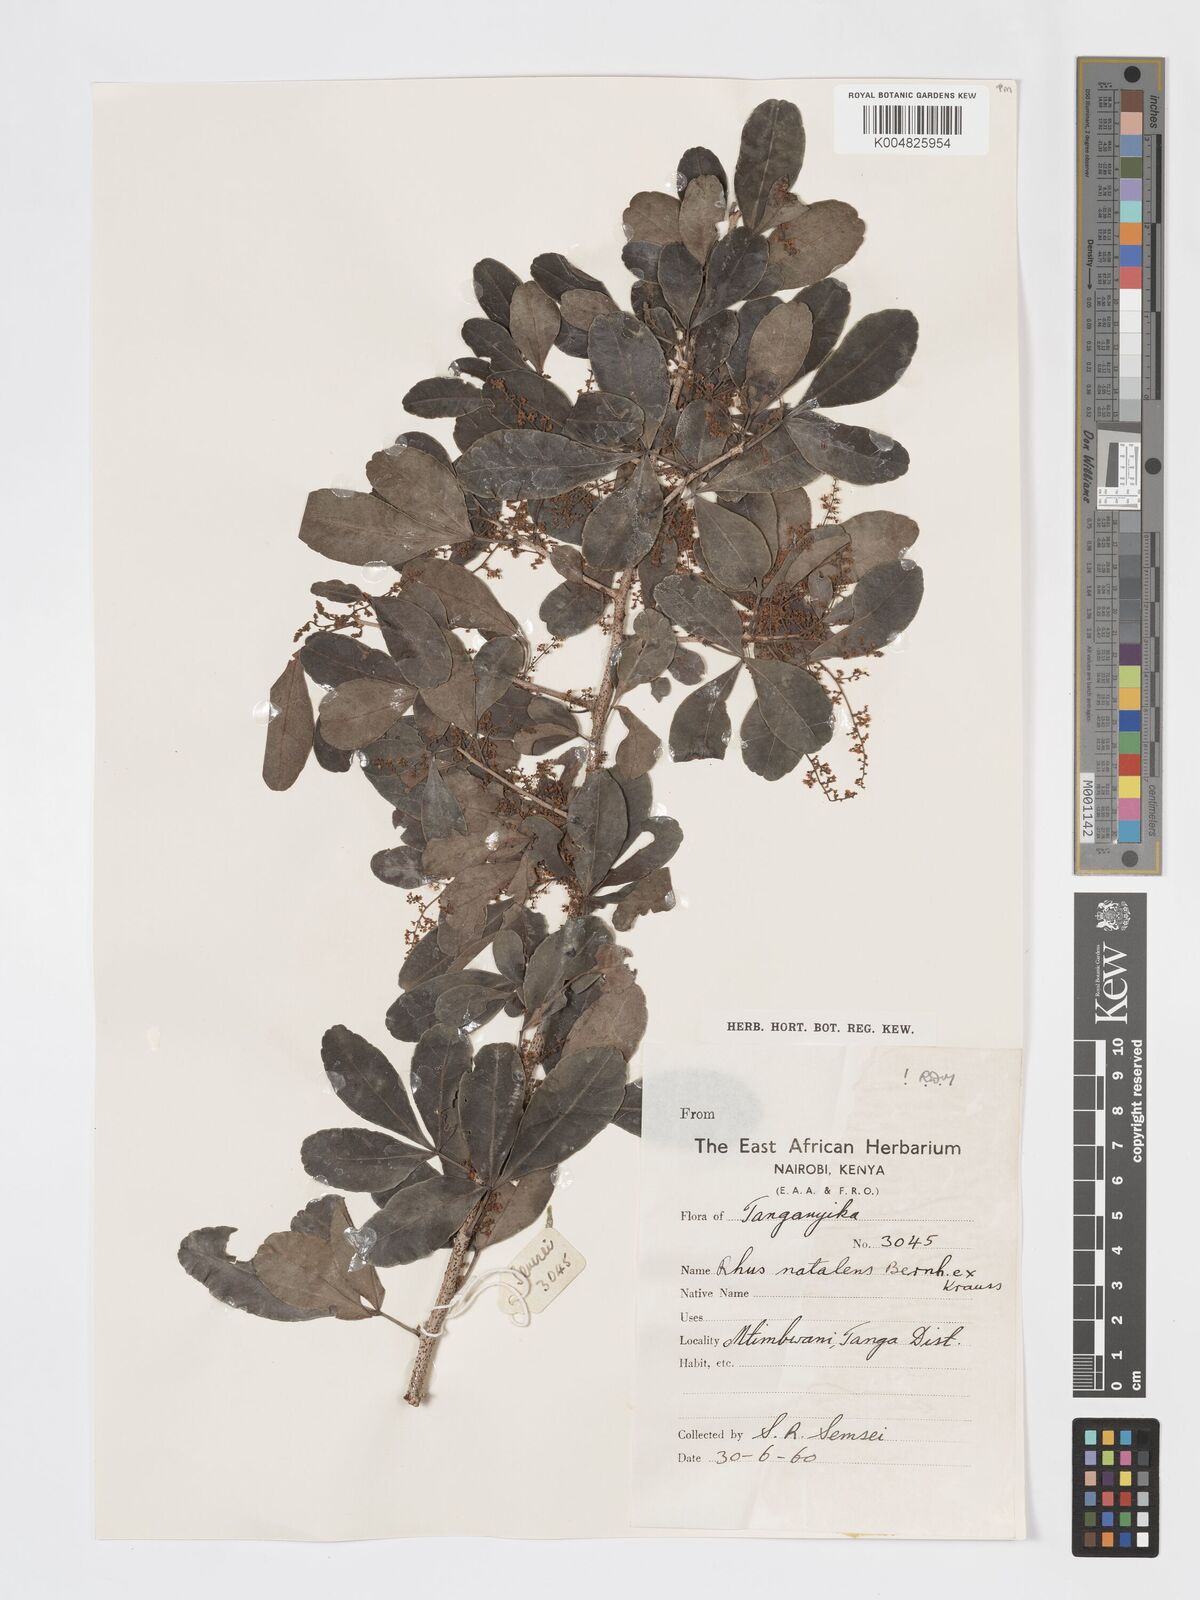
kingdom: Plantae
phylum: Tracheophyta
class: Magnoliopsida
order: Sapindales
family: Anacardiaceae
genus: Searsia
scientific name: Searsia natalensis
